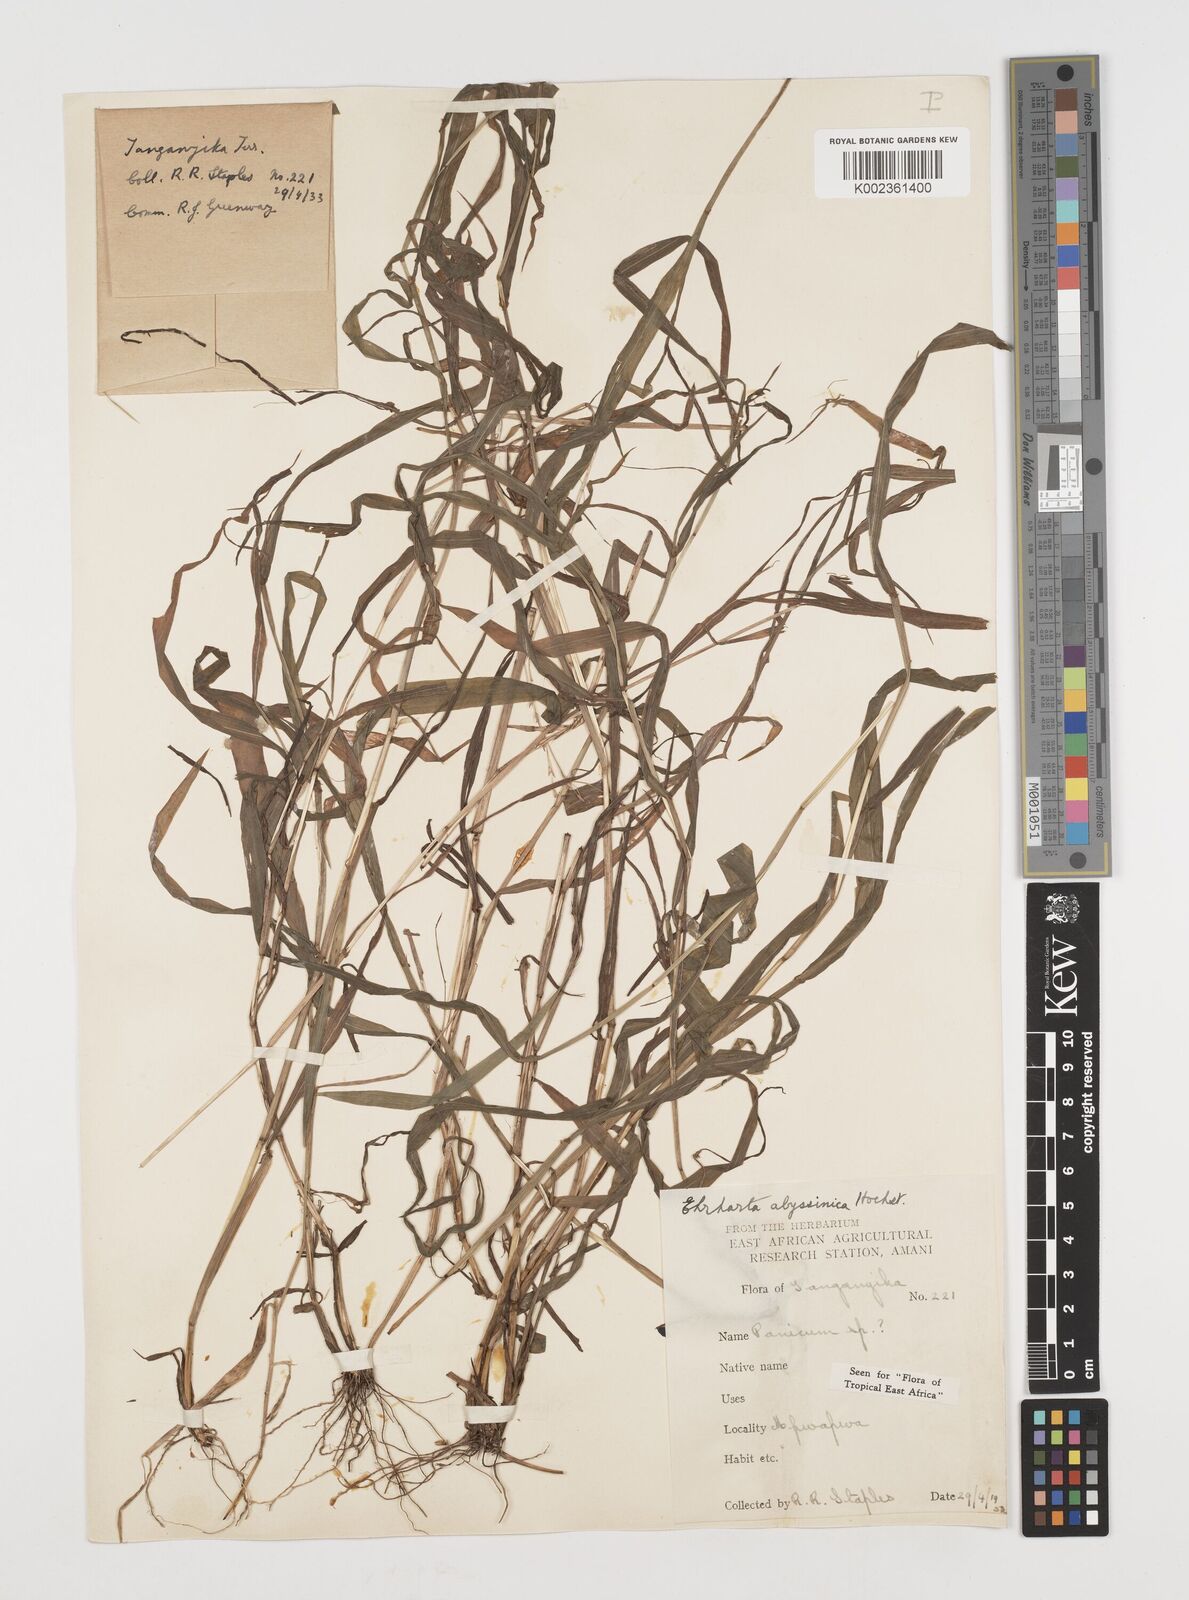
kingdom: Plantae
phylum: Tracheophyta
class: Liliopsida
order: Poales
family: Poaceae
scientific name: Poaceae
